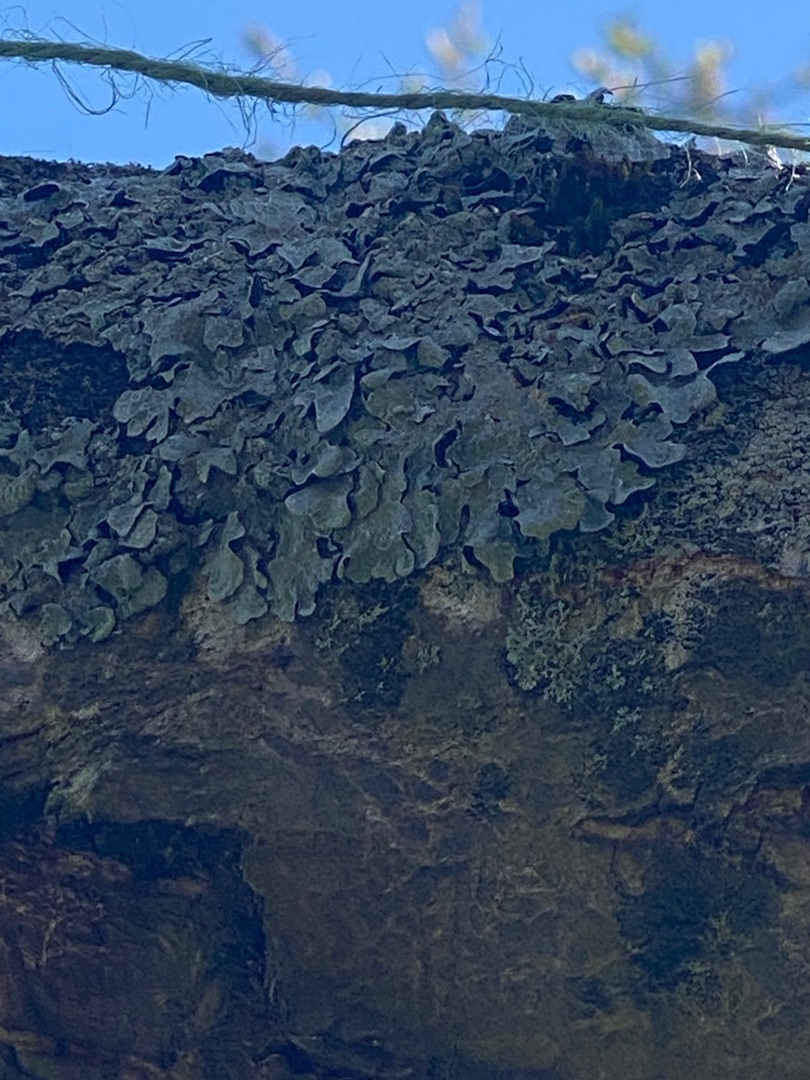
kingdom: Fungi
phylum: Ascomycota
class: Lecanoromycetes
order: Lecanorales
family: Parmeliaceae
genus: Parmelia
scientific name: Parmelia sulcata
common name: Rynket skållav
